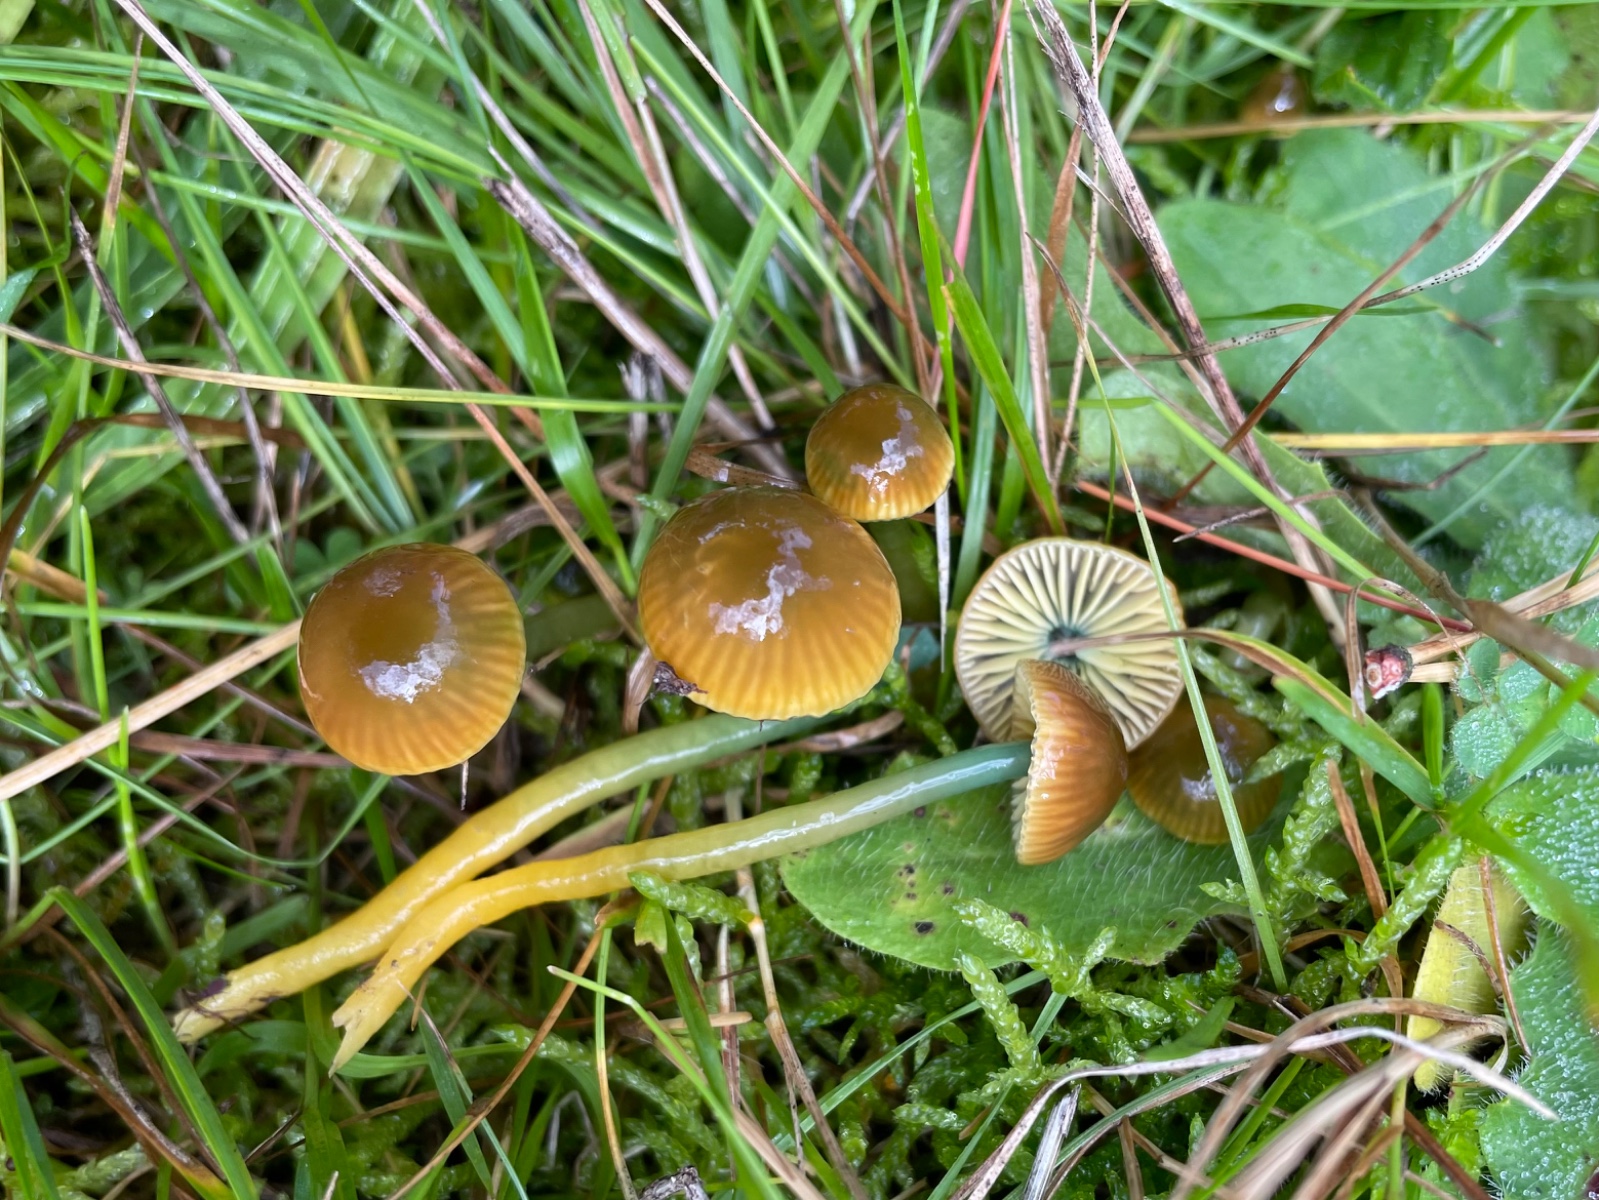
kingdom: Fungi
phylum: Basidiomycota
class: Agaricomycetes
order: Agaricales
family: Hygrophoraceae
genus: Gliophorus
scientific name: Gliophorus psittacinus
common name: papegøje-vokshat
